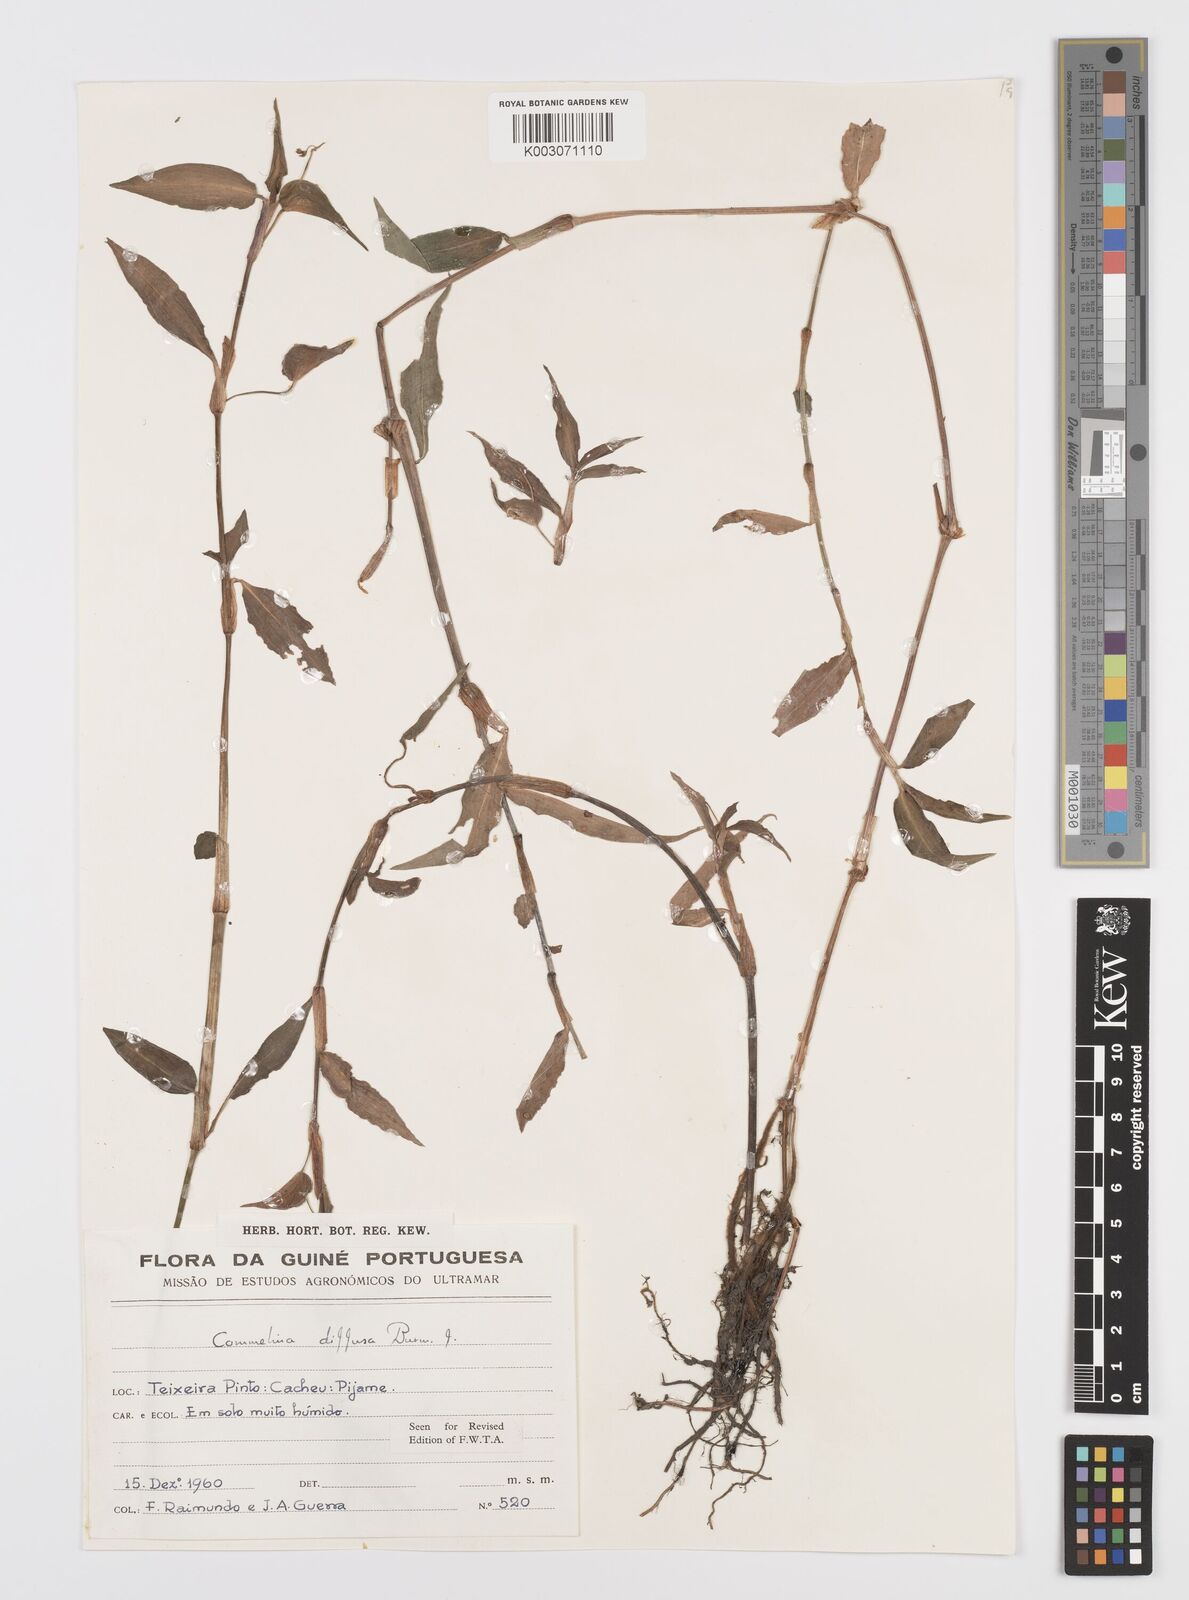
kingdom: Plantae
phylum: Tracheophyta
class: Liliopsida
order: Commelinales
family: Commelinaceae
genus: Commelina
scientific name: Commelina diffusa
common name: Climbing dayflower
